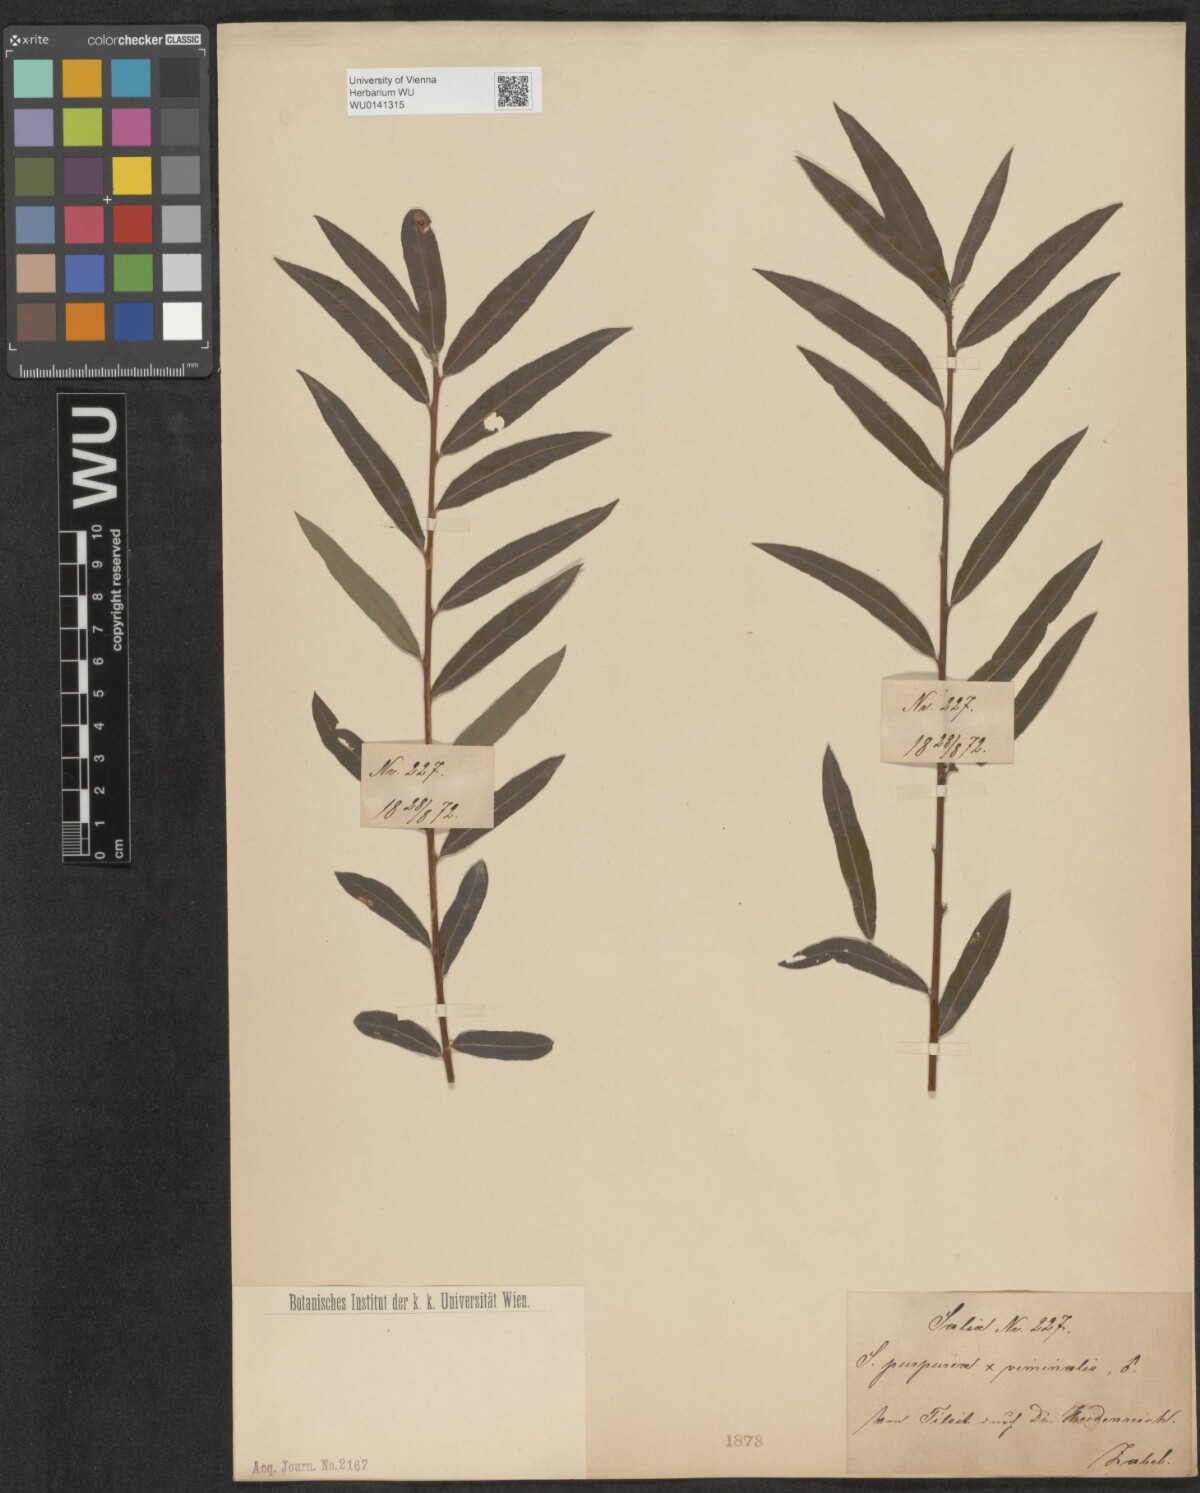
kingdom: Plantae
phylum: Tracheophyta
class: Magnoliopsida
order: Malpighiales
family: Salicaceae
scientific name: Salicaceae
